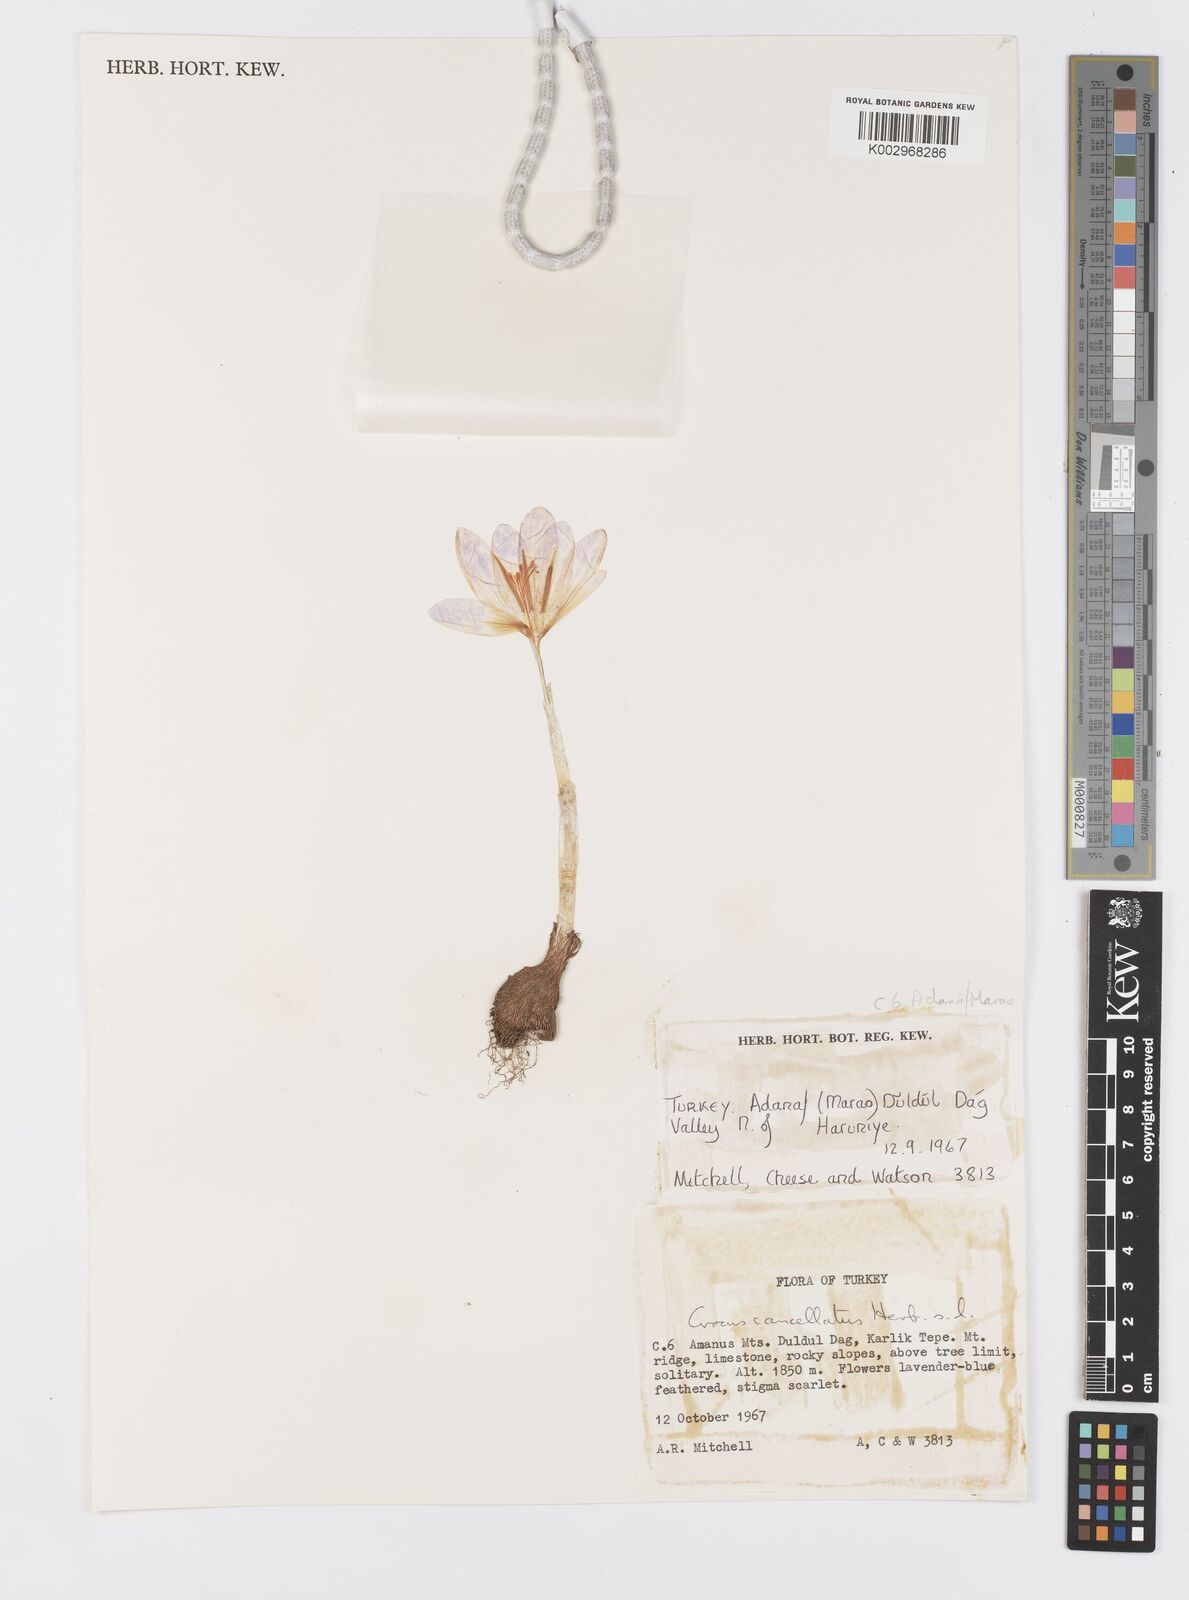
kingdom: Plantae
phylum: Tracheophyta
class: Liliopsida
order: Asparagales
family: Iridaceae
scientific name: Iridaceae
